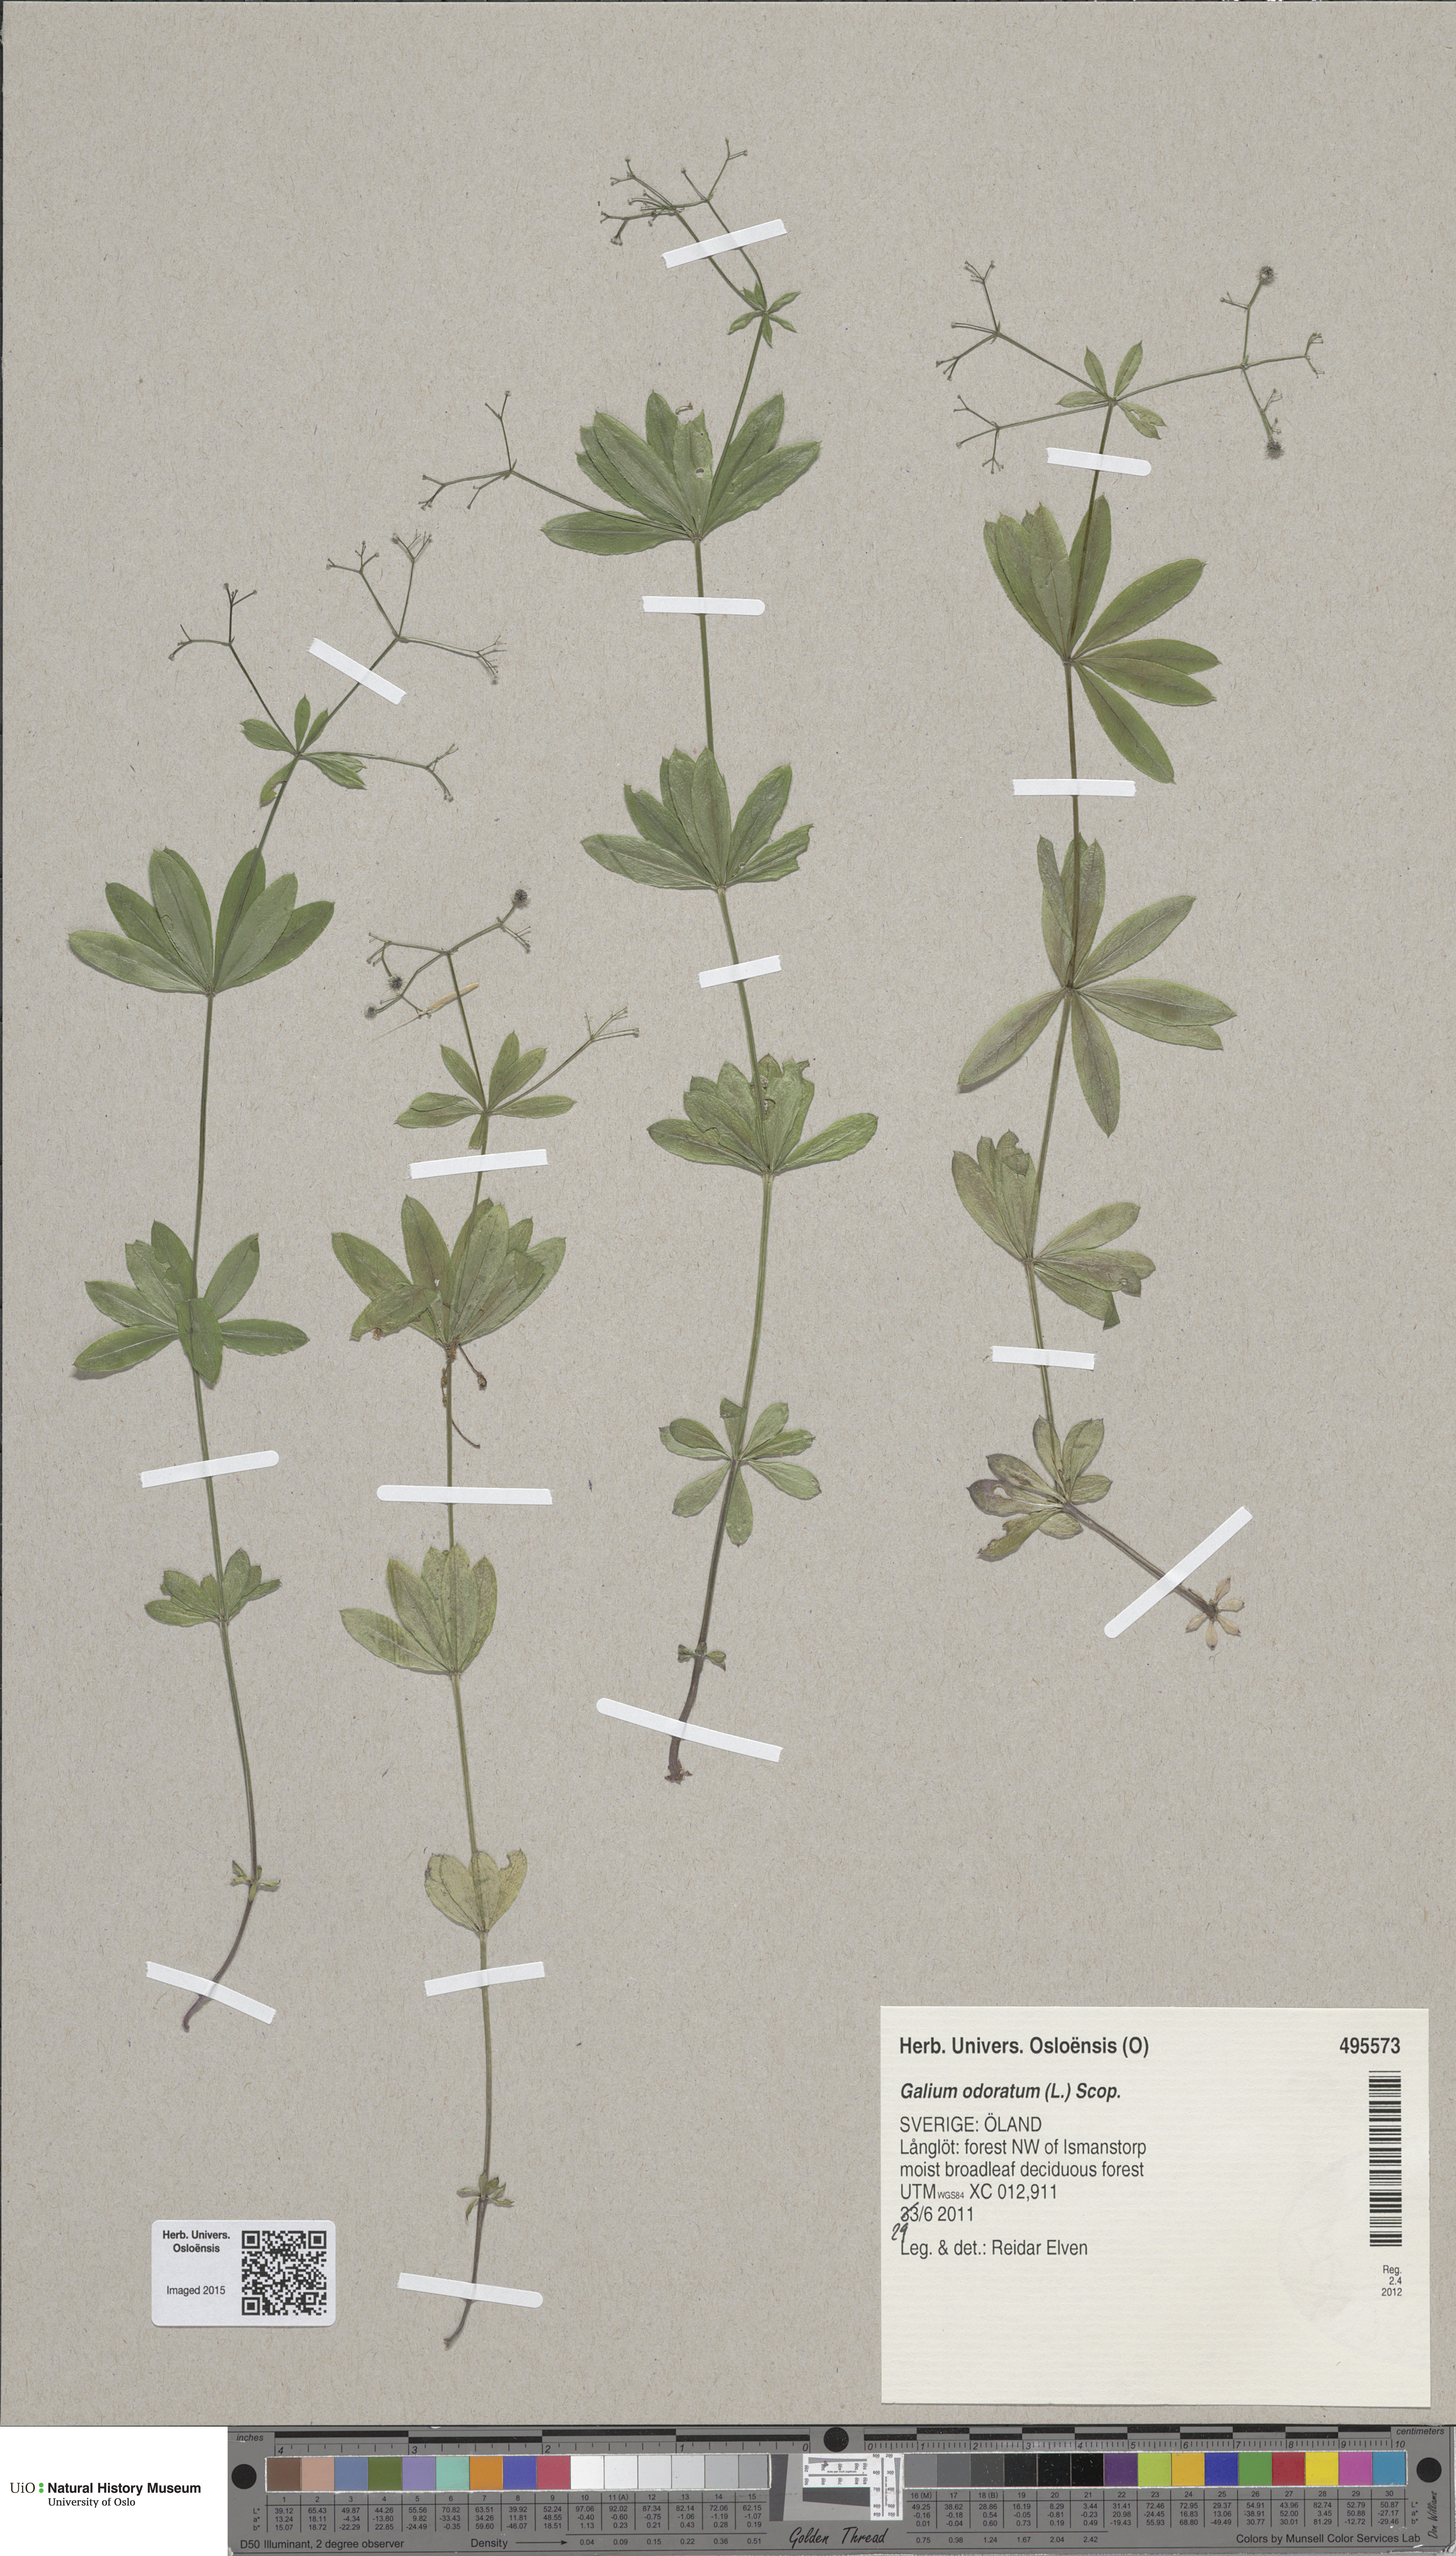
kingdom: Plantae
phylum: Tracheophyta
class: Magnoliopsida
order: Gentianales
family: Rubiaceae
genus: Galium
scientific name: Galium odoratum
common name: Sweet woodruff
